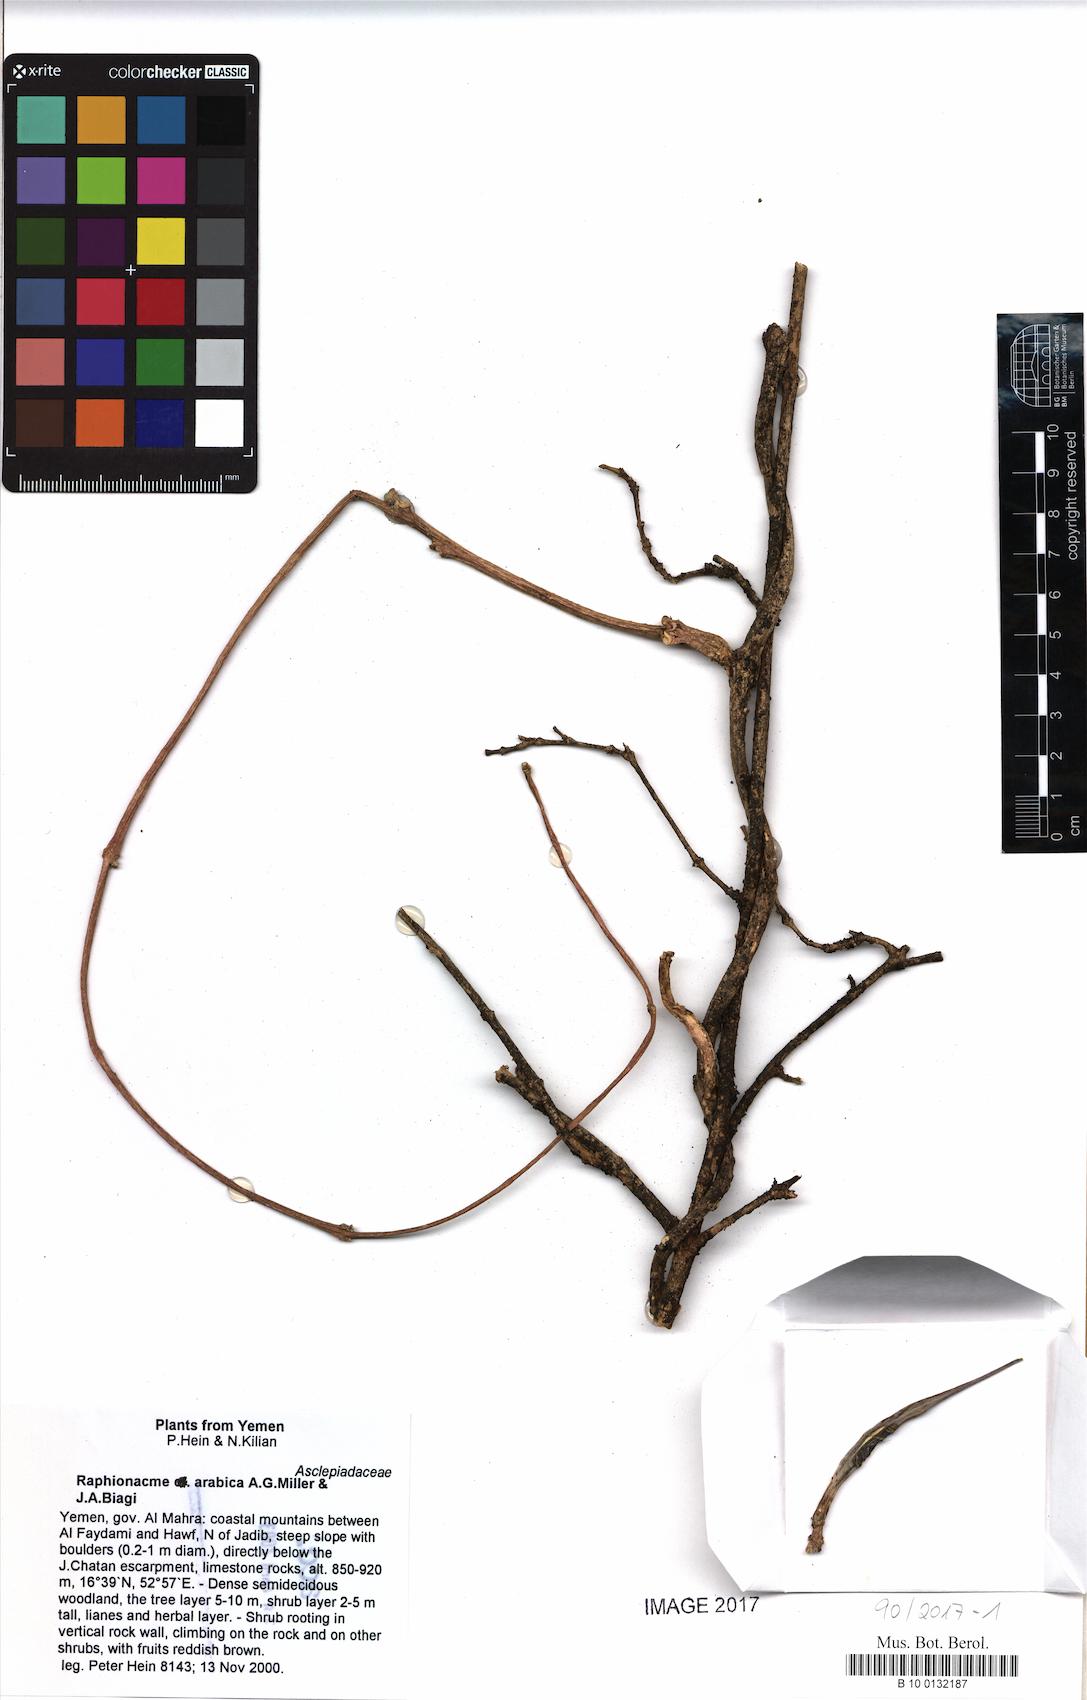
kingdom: Plantae
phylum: Tracheophyta
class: Magnoliopsida
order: Gentianales
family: Apocynaceae
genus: Periploca
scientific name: Periploca somaliensis
